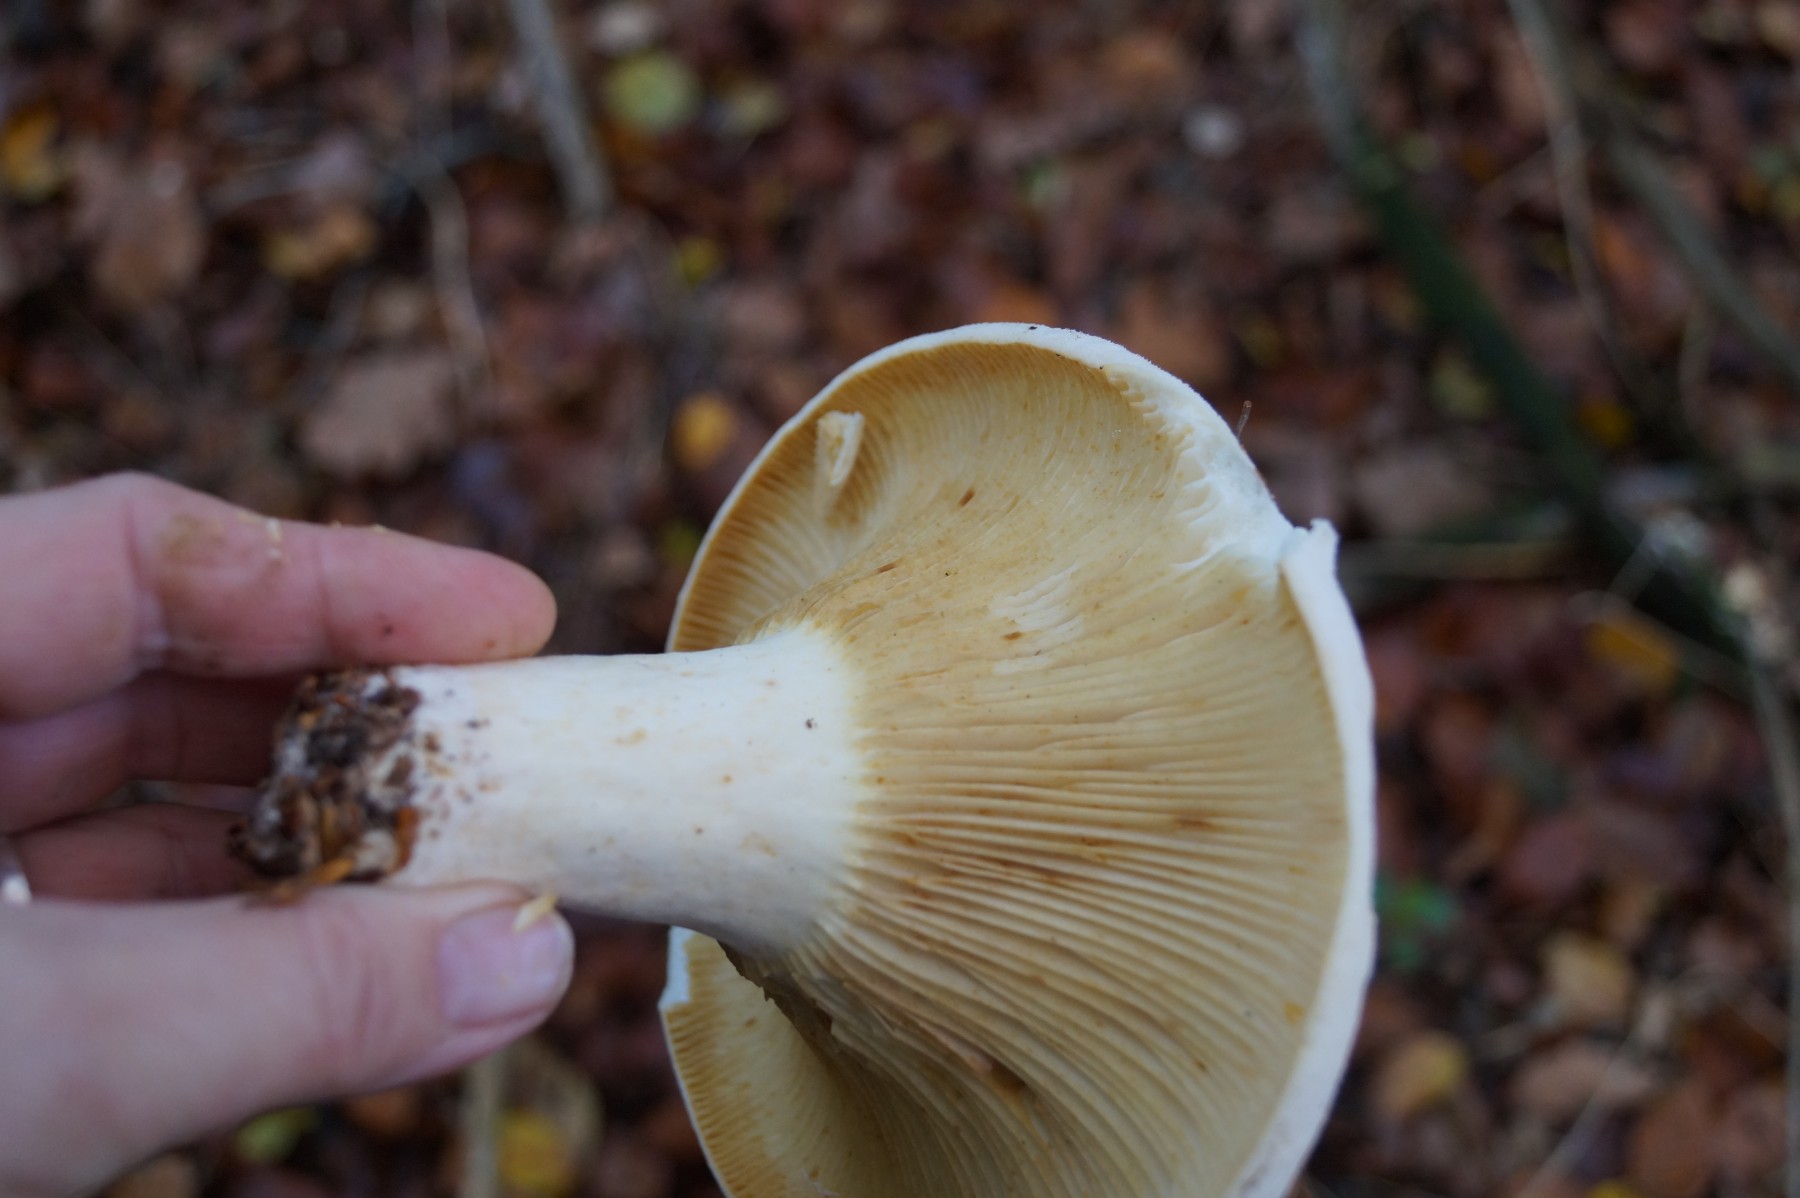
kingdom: Fungi
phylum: Basidiomycota
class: Agaricomycetes
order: Russulales
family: Russulaceae
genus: Lactifluus
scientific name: Lactifluus bertillonii
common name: blødfiltet mælkehat
